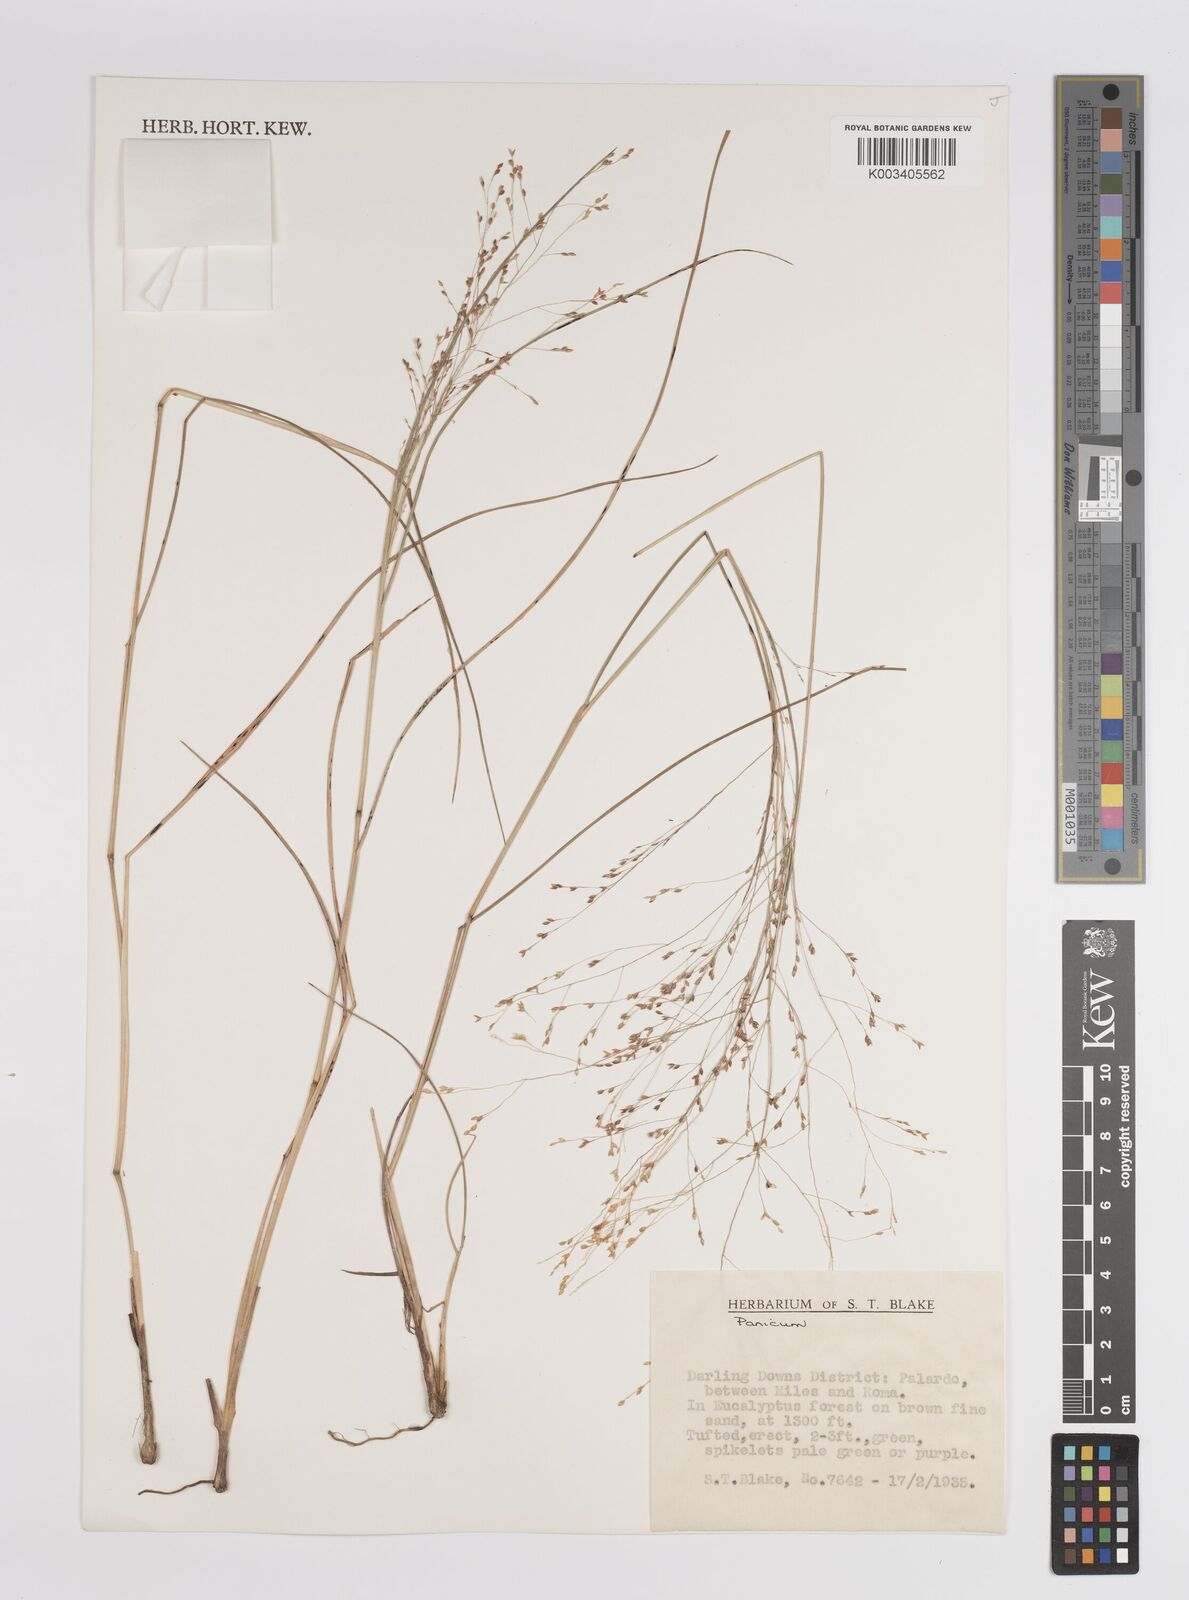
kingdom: Plantae
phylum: Tracheophyta
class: Liliopsida
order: Poales
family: Poaceae
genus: Panicum
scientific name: Panicum
